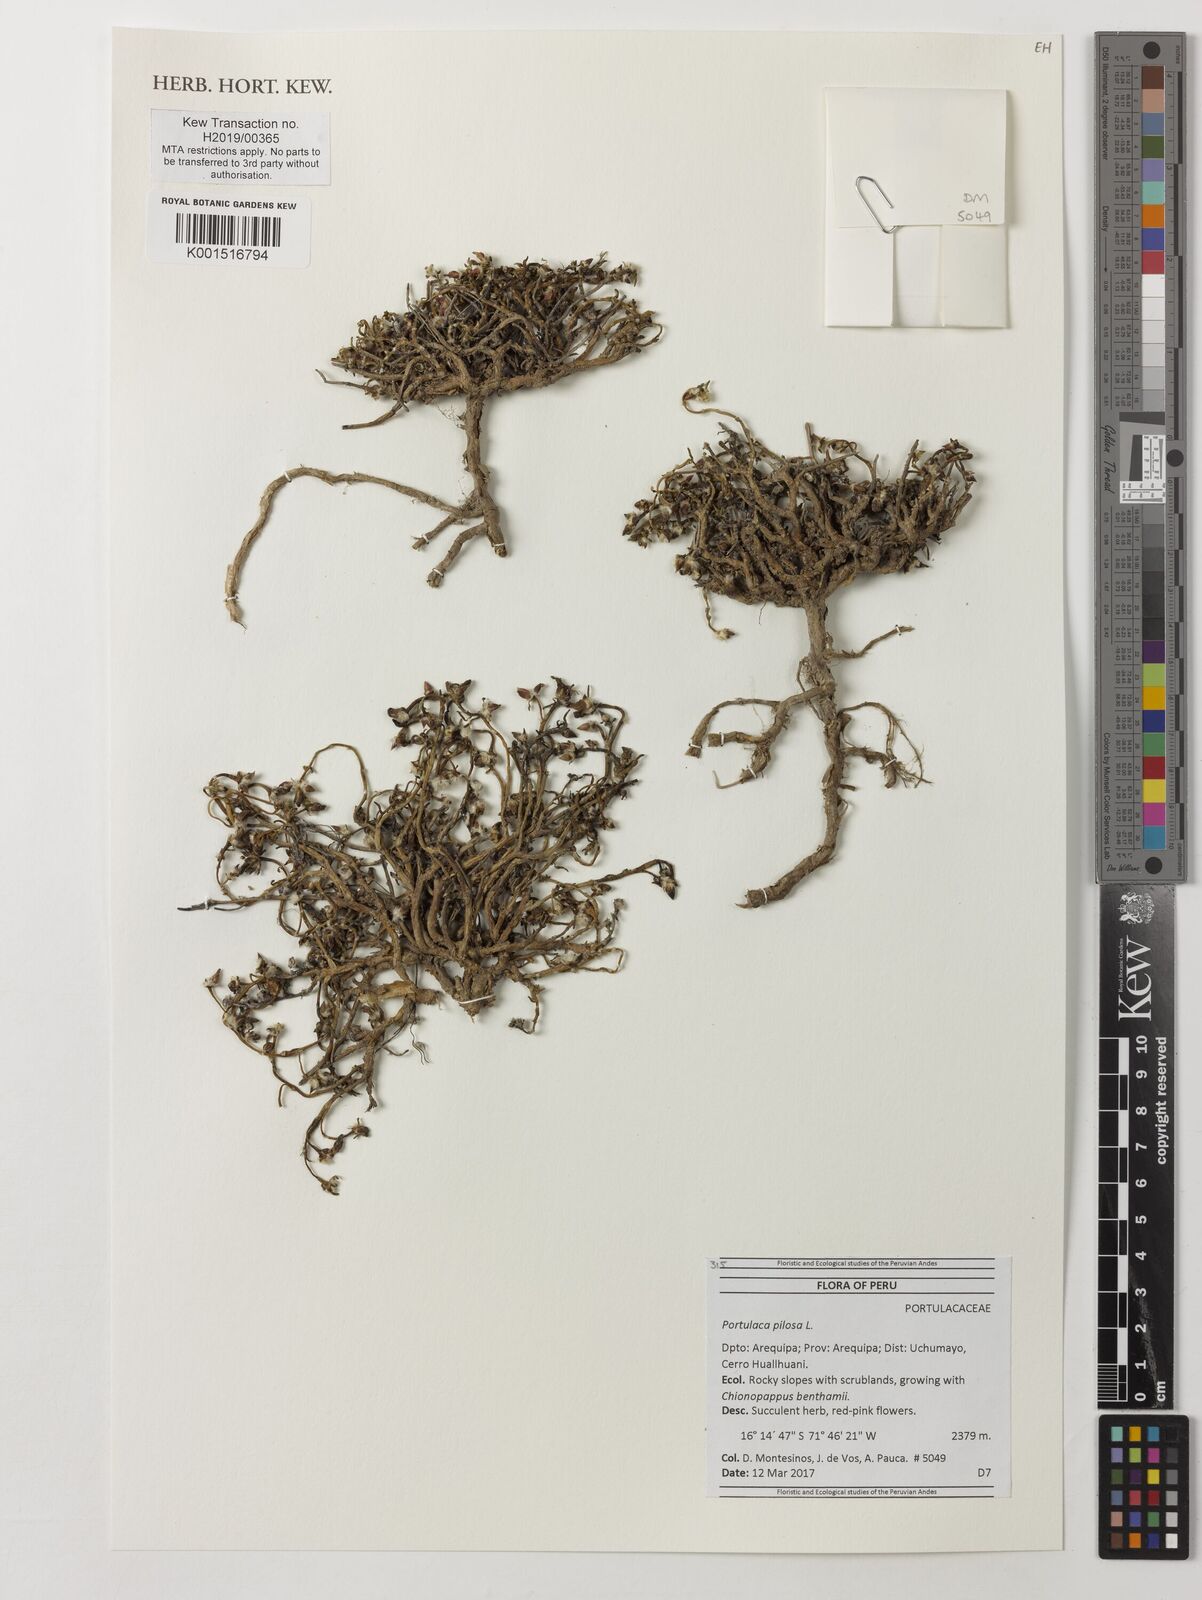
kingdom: Plantae
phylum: Tracheophyta
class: Magnoliopsida
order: Caryophyllales
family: Portulacaceae
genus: Portulaca
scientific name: Portulaca pilosa
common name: Kiss me quick
